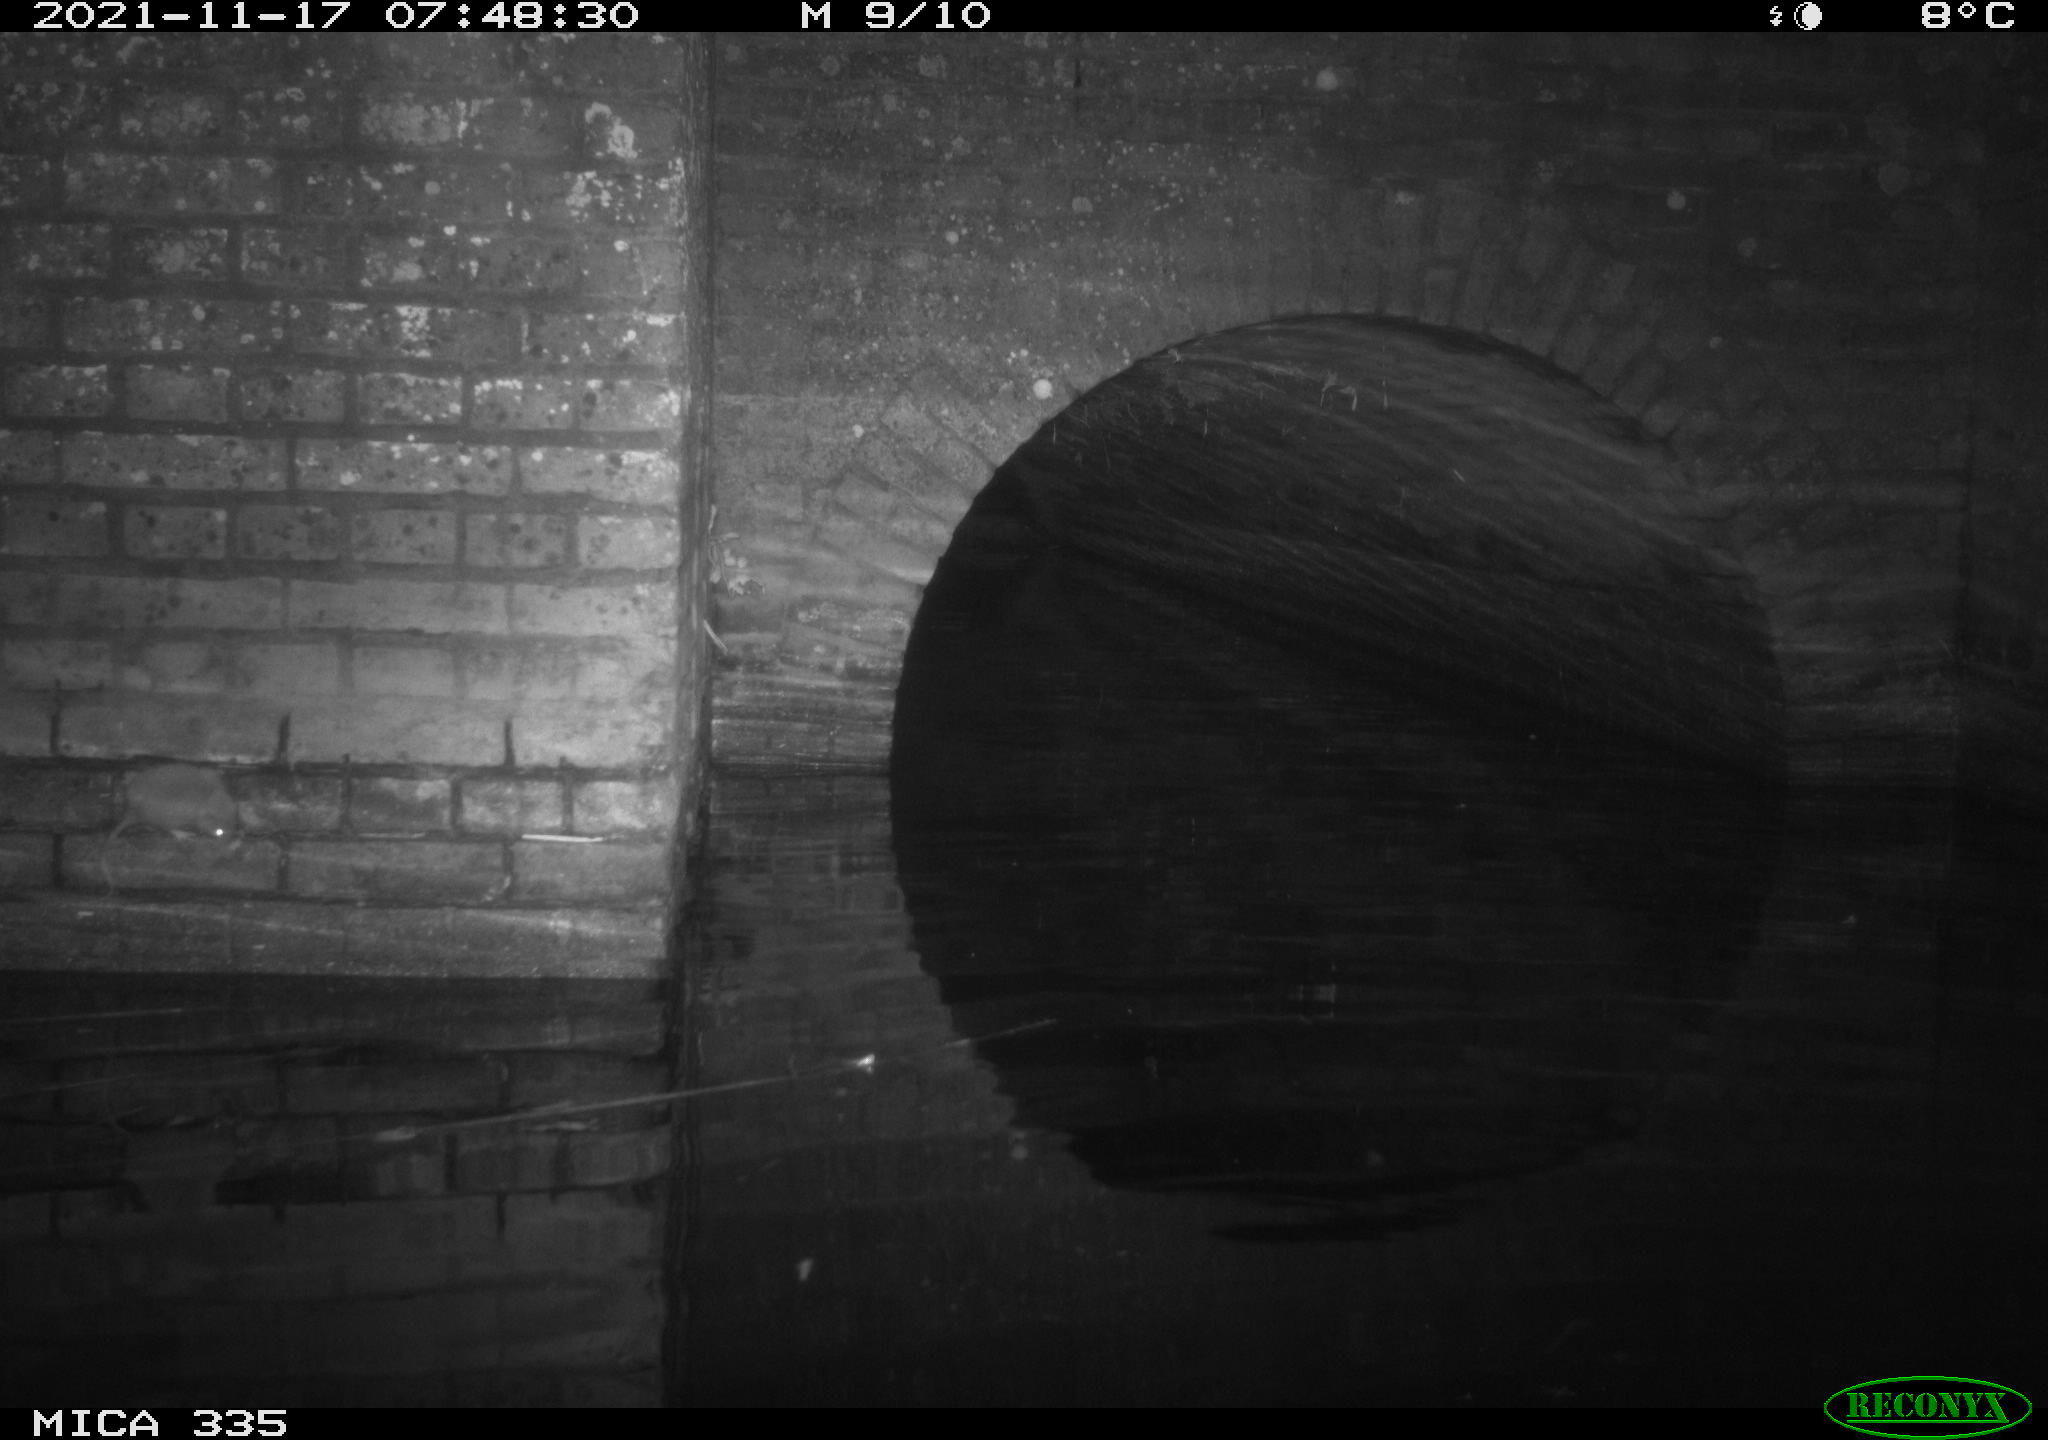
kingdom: Animalia
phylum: Chordata
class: Mammalia
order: Rodentia
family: Muridae
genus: Rattus
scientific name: Rattus norvegicus
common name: Brown rat
